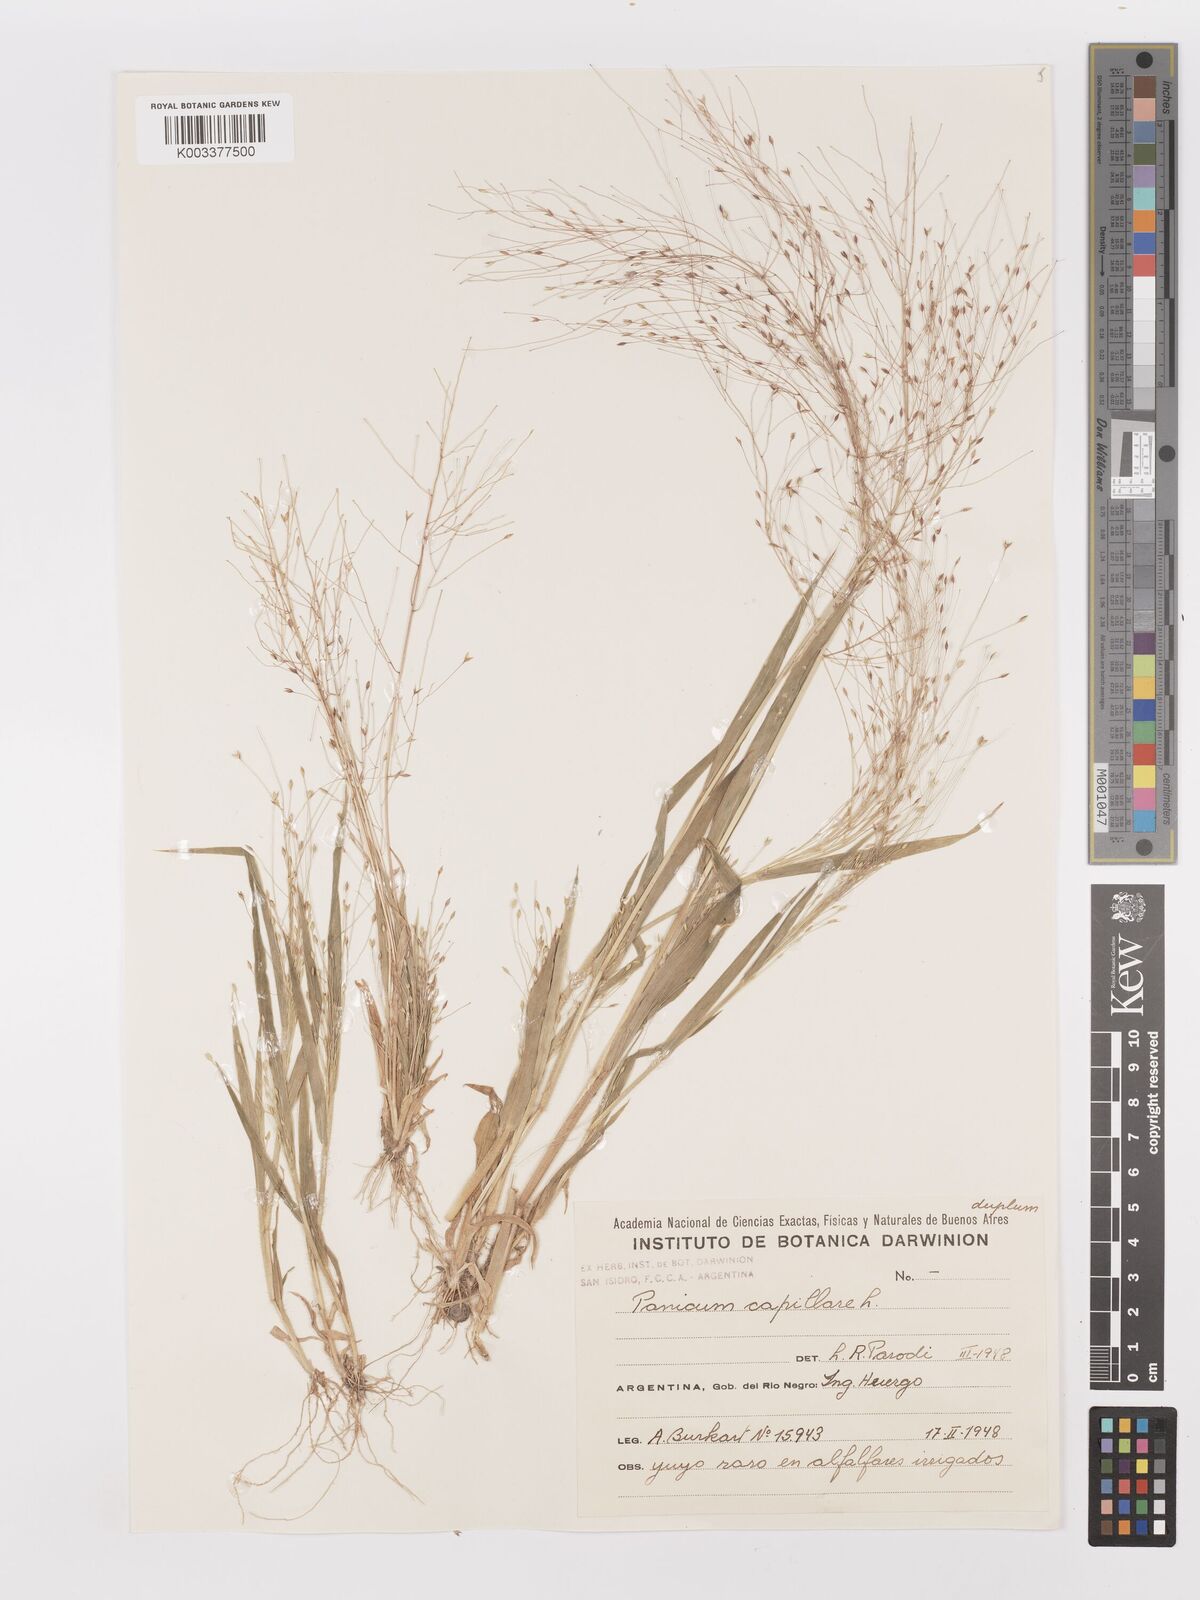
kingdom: Plantae
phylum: Tracheophyta
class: Liliopsida
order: Poales
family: Poaceae
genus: Panicum
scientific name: Panicum capillare
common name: Witch-grass
